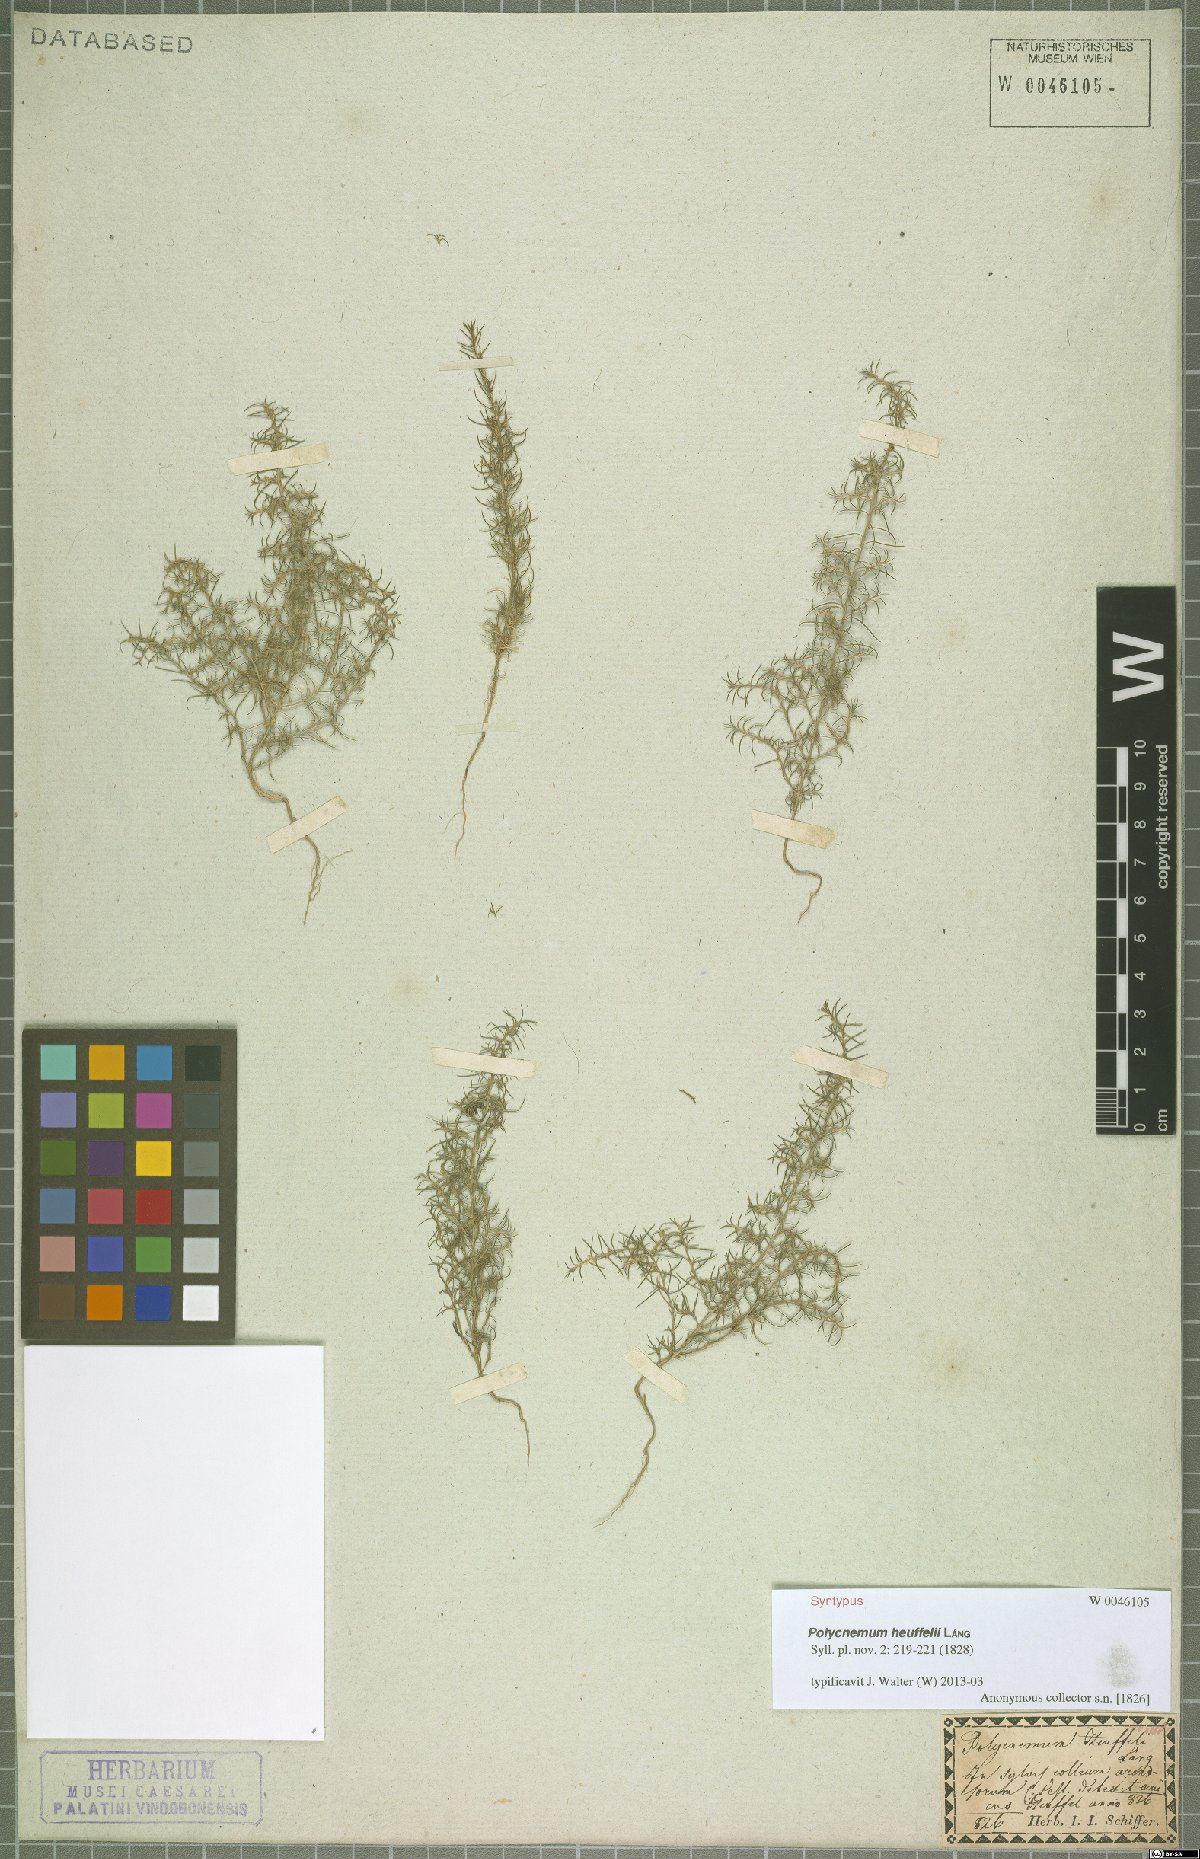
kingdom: Plantae
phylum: Tracheophyta
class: Magnoliopsida
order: Caryophyllales
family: Amaranthaceae
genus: Polycnemum
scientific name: Polycnemum heuffelii
